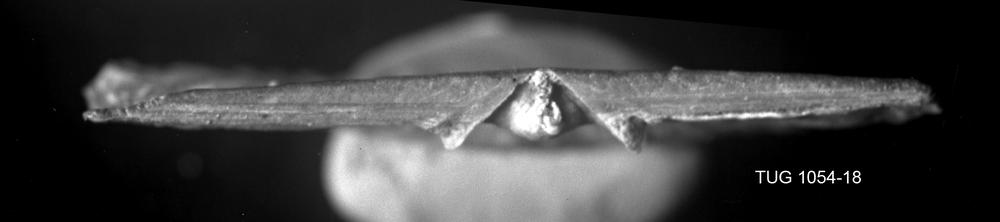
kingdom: Animalia
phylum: Brachiopoda
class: Rhynchonellata
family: Orthidae
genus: Cyrtonotella
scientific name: Cyrtonotella Orthis kuckersiana
